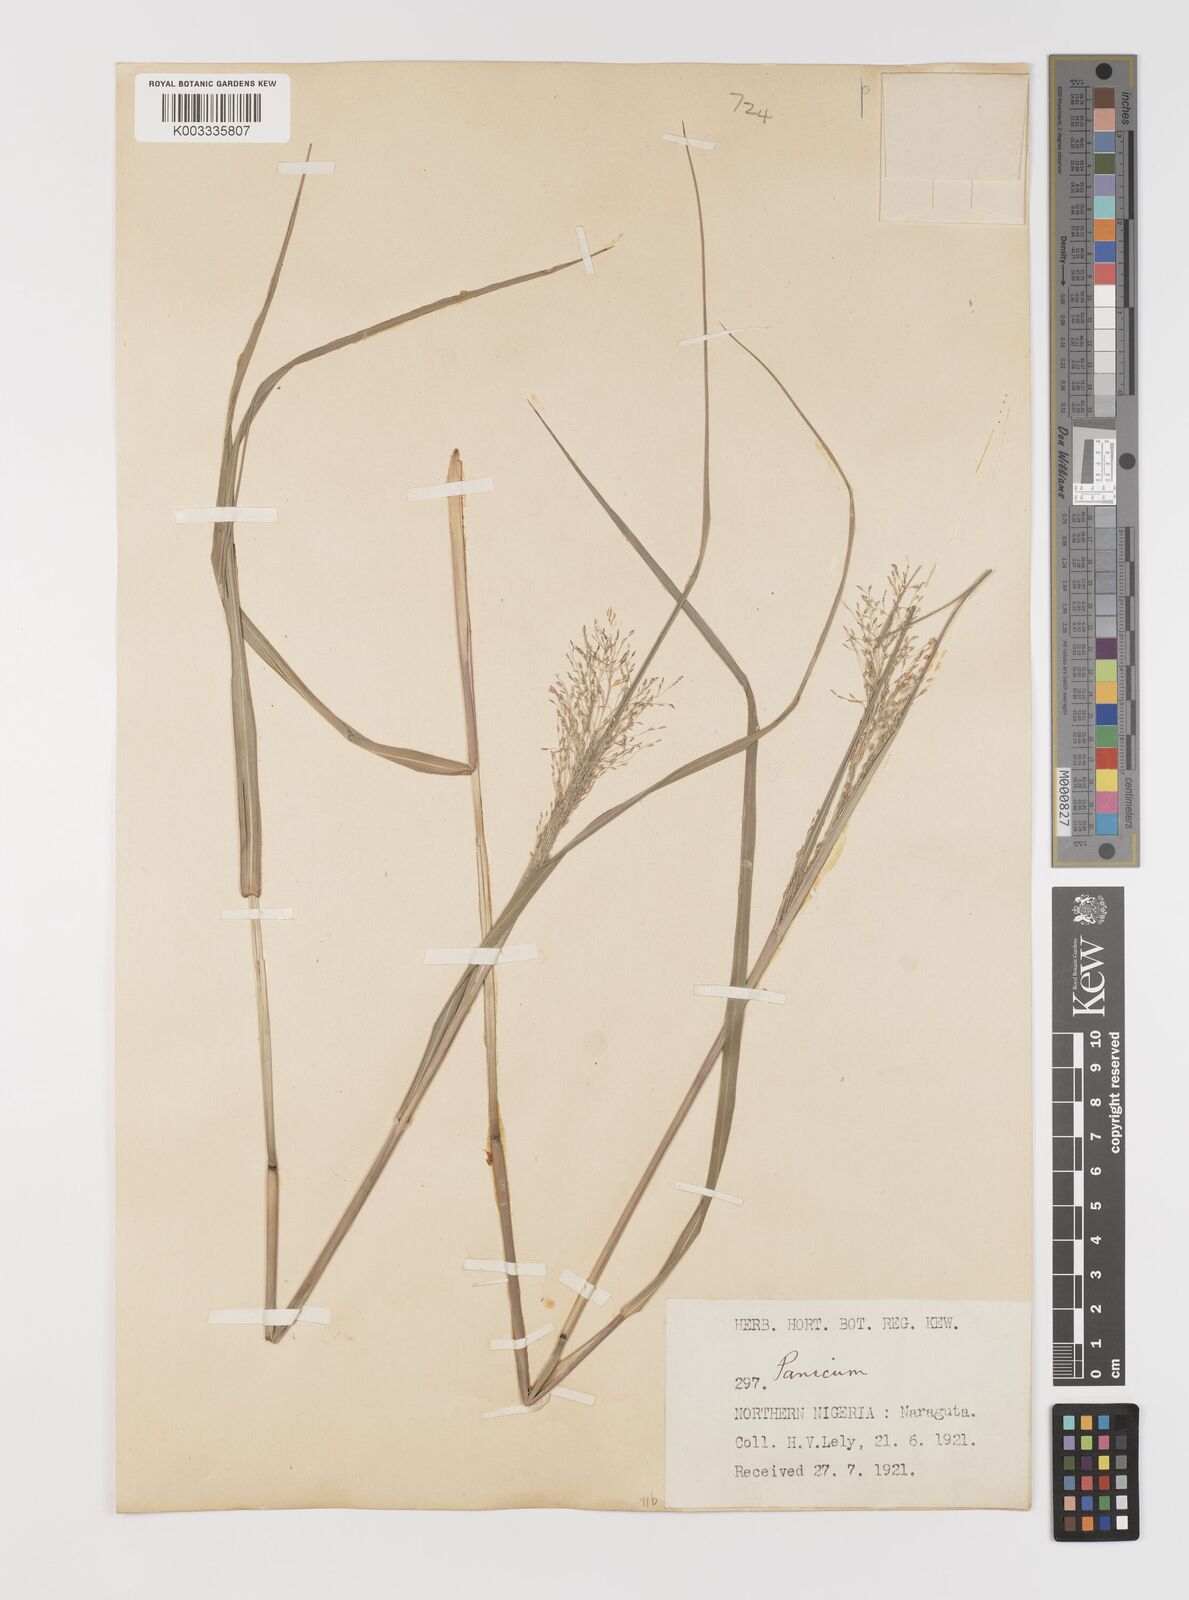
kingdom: Plantae
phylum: Tracheophyta
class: Liliopsida
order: Poales
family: Poaceae
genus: Panicum
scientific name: Panicum fluviicola
